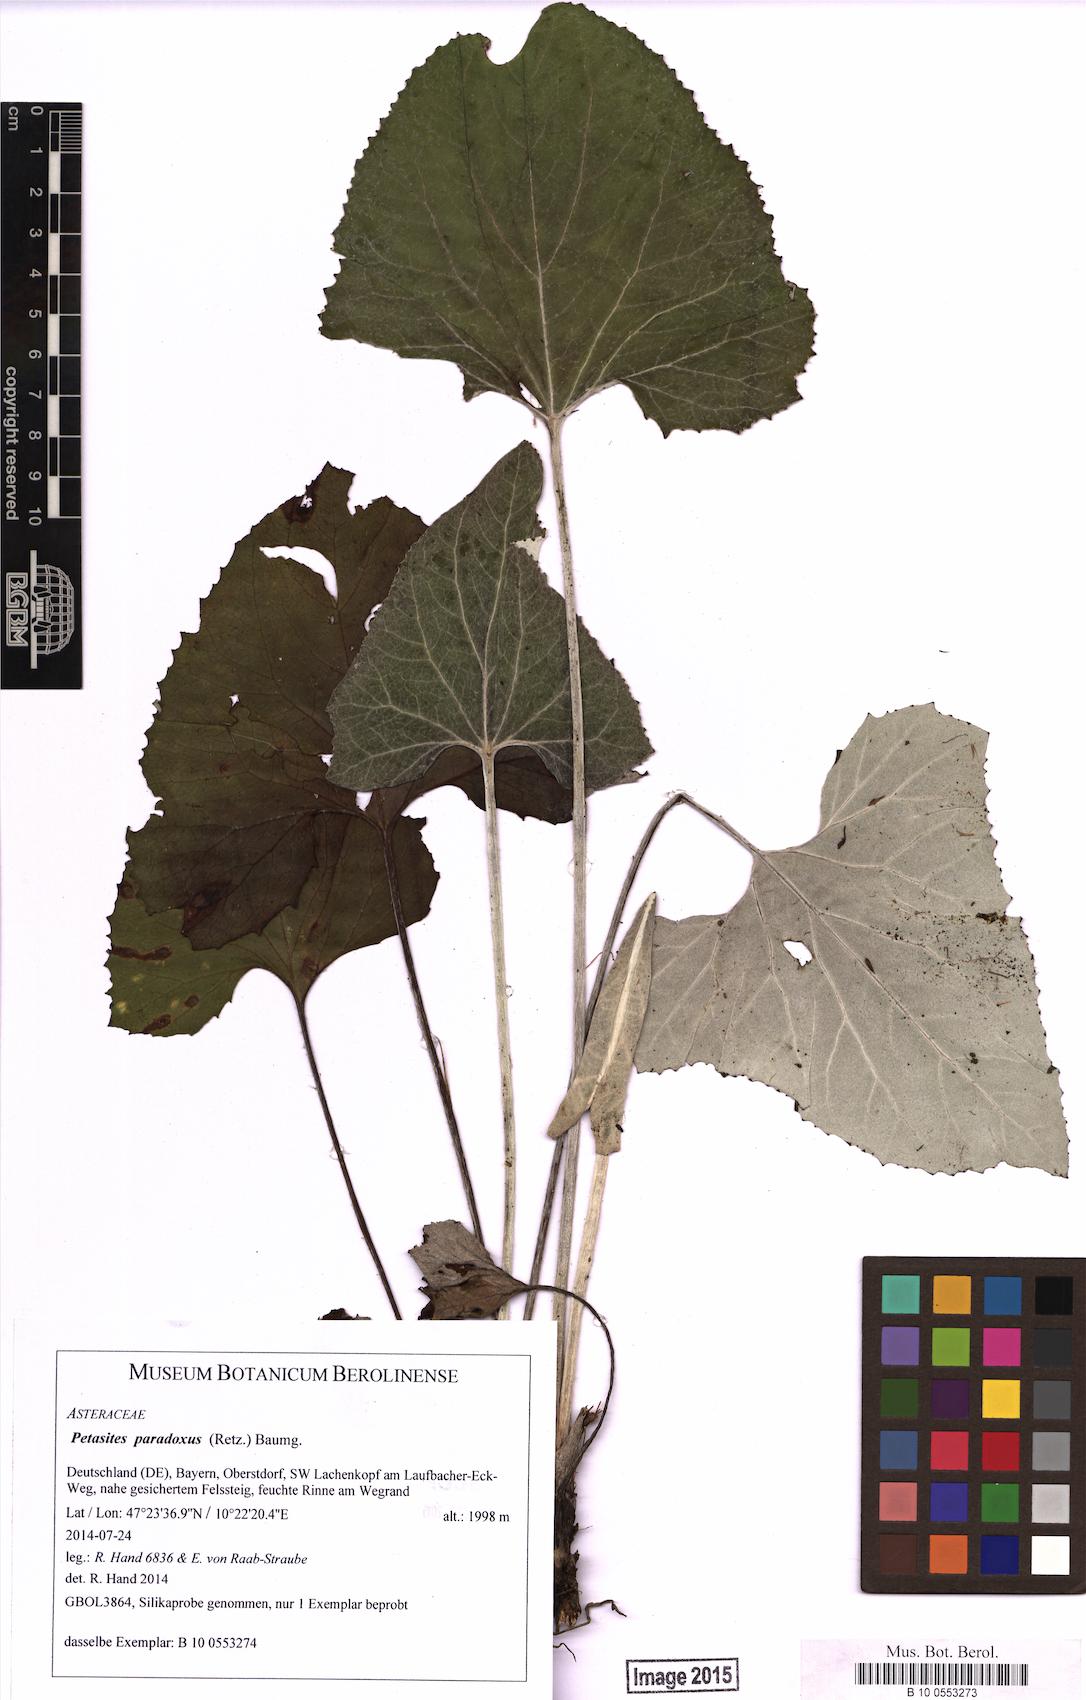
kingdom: Plantae
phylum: Tracheophyta
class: Magnoliopsida
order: Asterales
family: Asteraceae
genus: Petasites
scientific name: Petasites paradoxus
